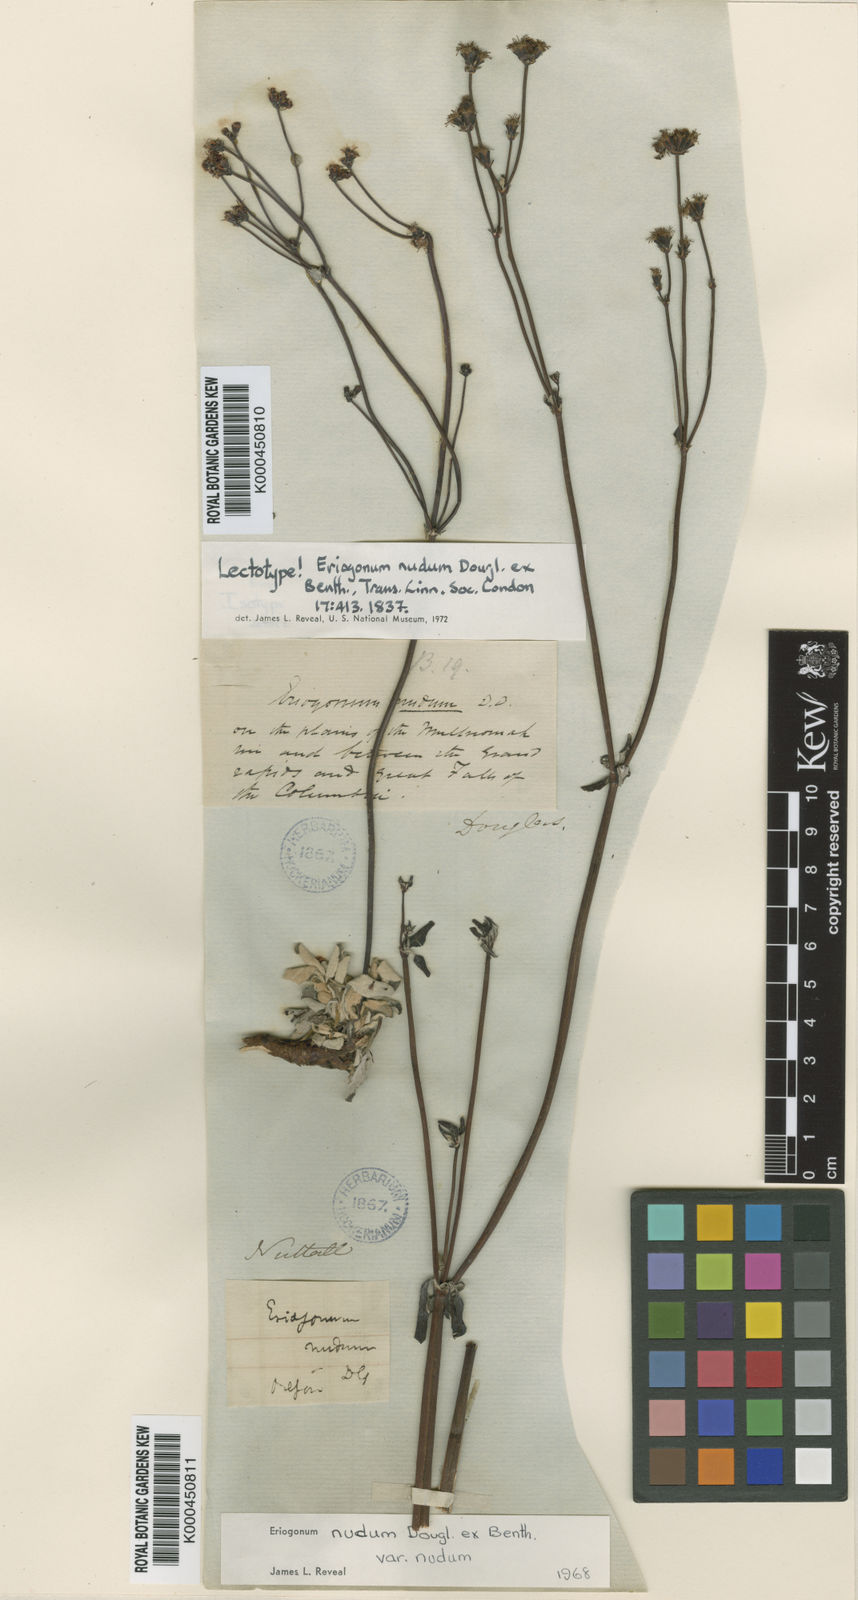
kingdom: Plantae
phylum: Tracheophyta
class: Magnoliopsida
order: Caryophyllales
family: Polygonaceae
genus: Eriogonum
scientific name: Eriogonum nudum
